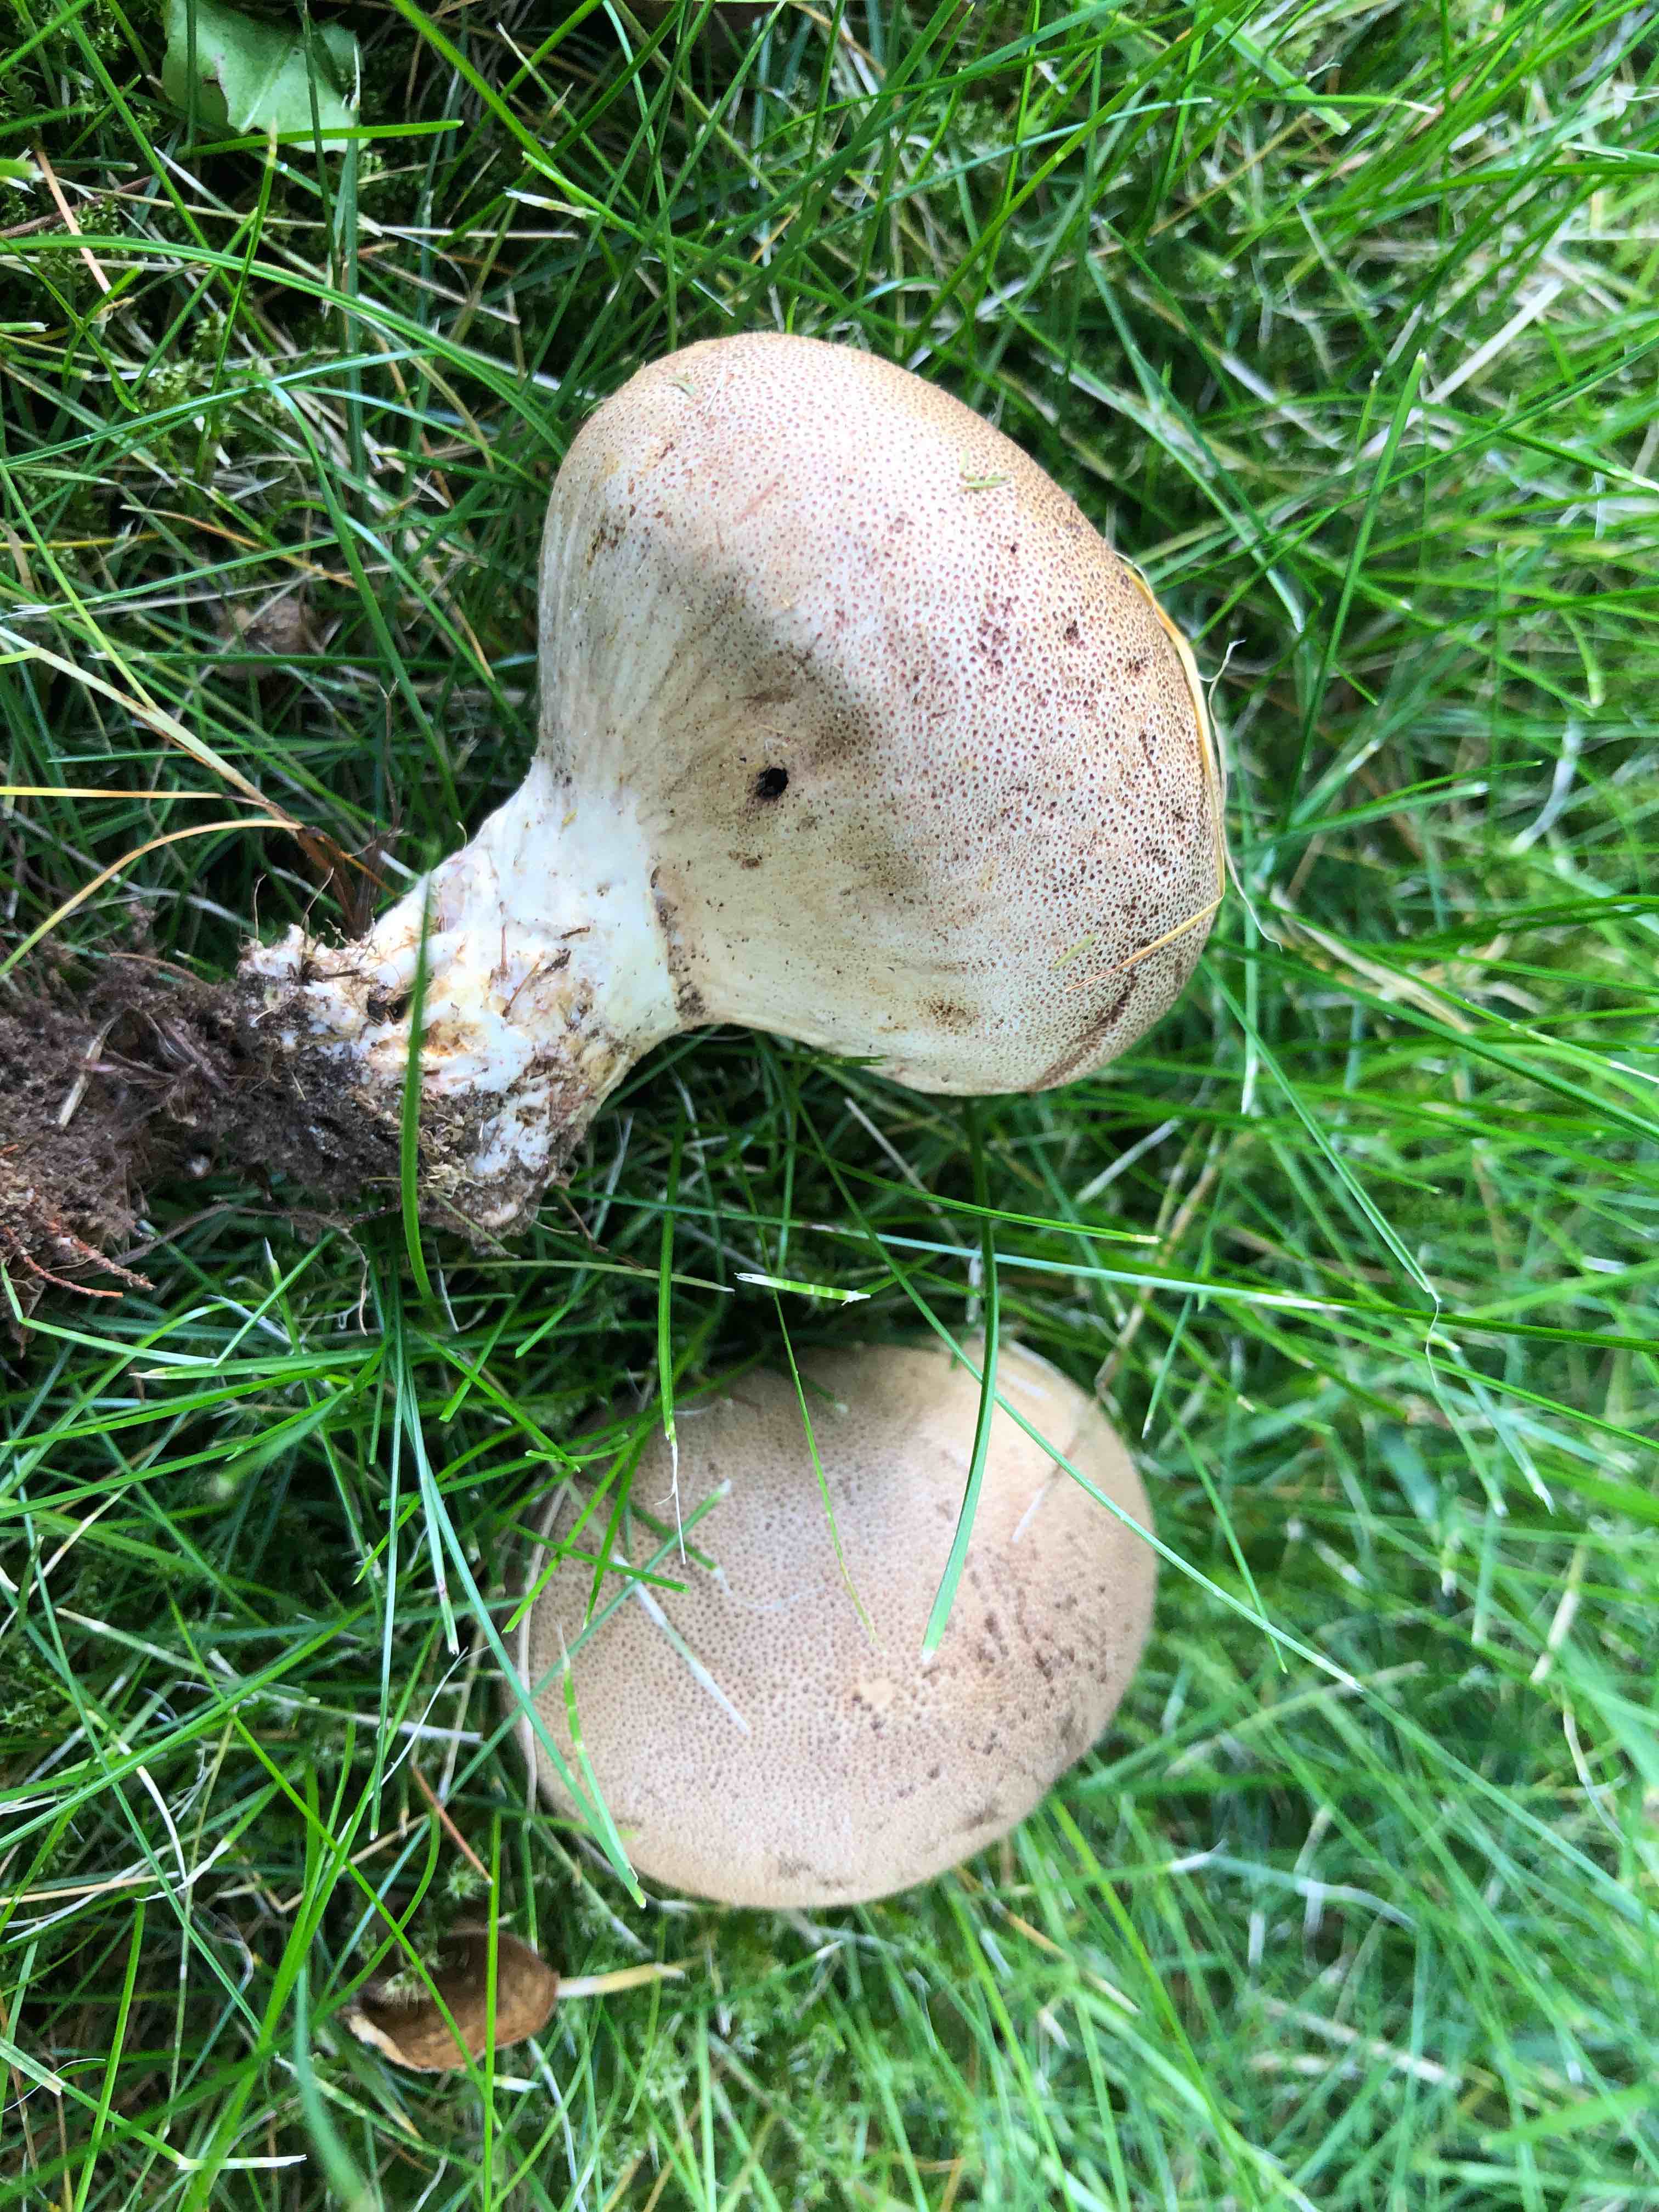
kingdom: Fungi
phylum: Basidiomycota
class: Agaricomycetes
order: Boletales
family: Sclerodermataceae
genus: Scleroderma
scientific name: Scleroderma verrucosum
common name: stilket bruskbold
